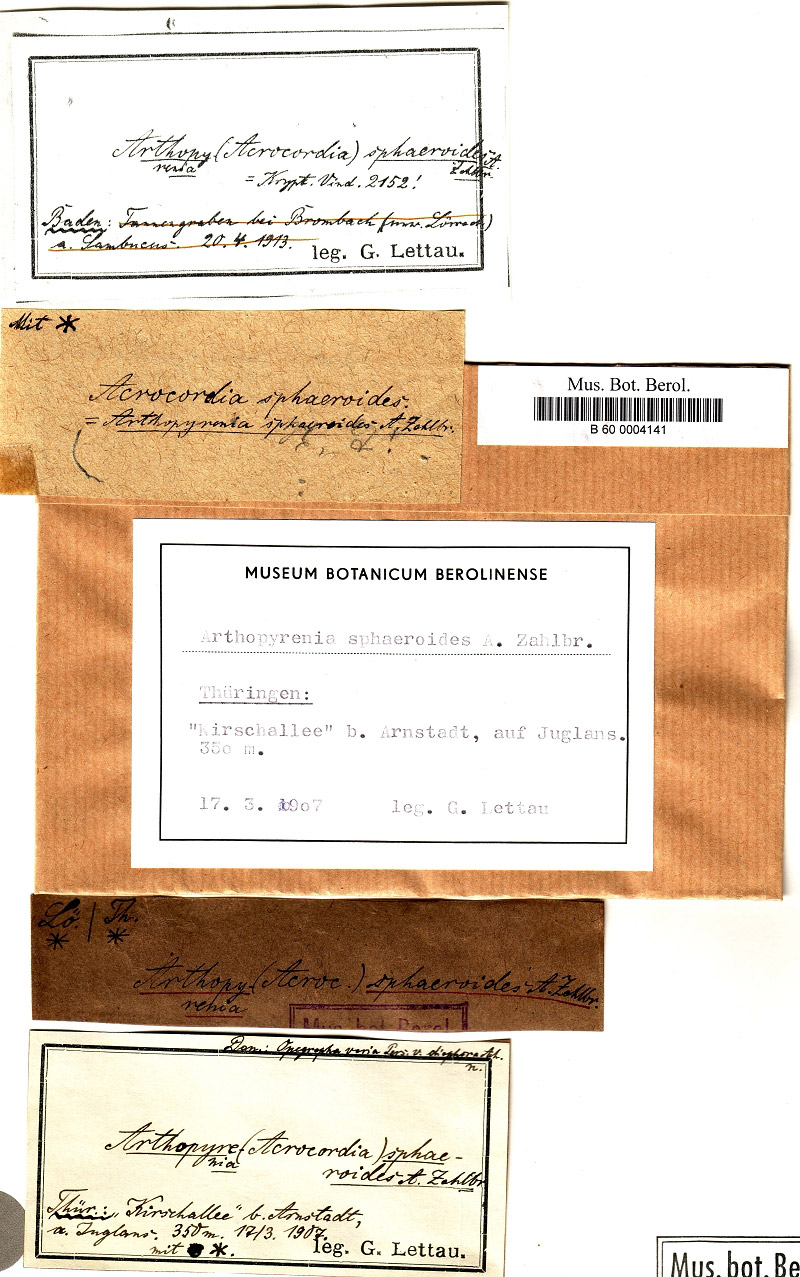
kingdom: Fungi
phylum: Ascomycota
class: Arthoniomycetes
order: Arthoniales
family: Lecanographaceae
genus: Alyxoria
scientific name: Alyxoria varia
